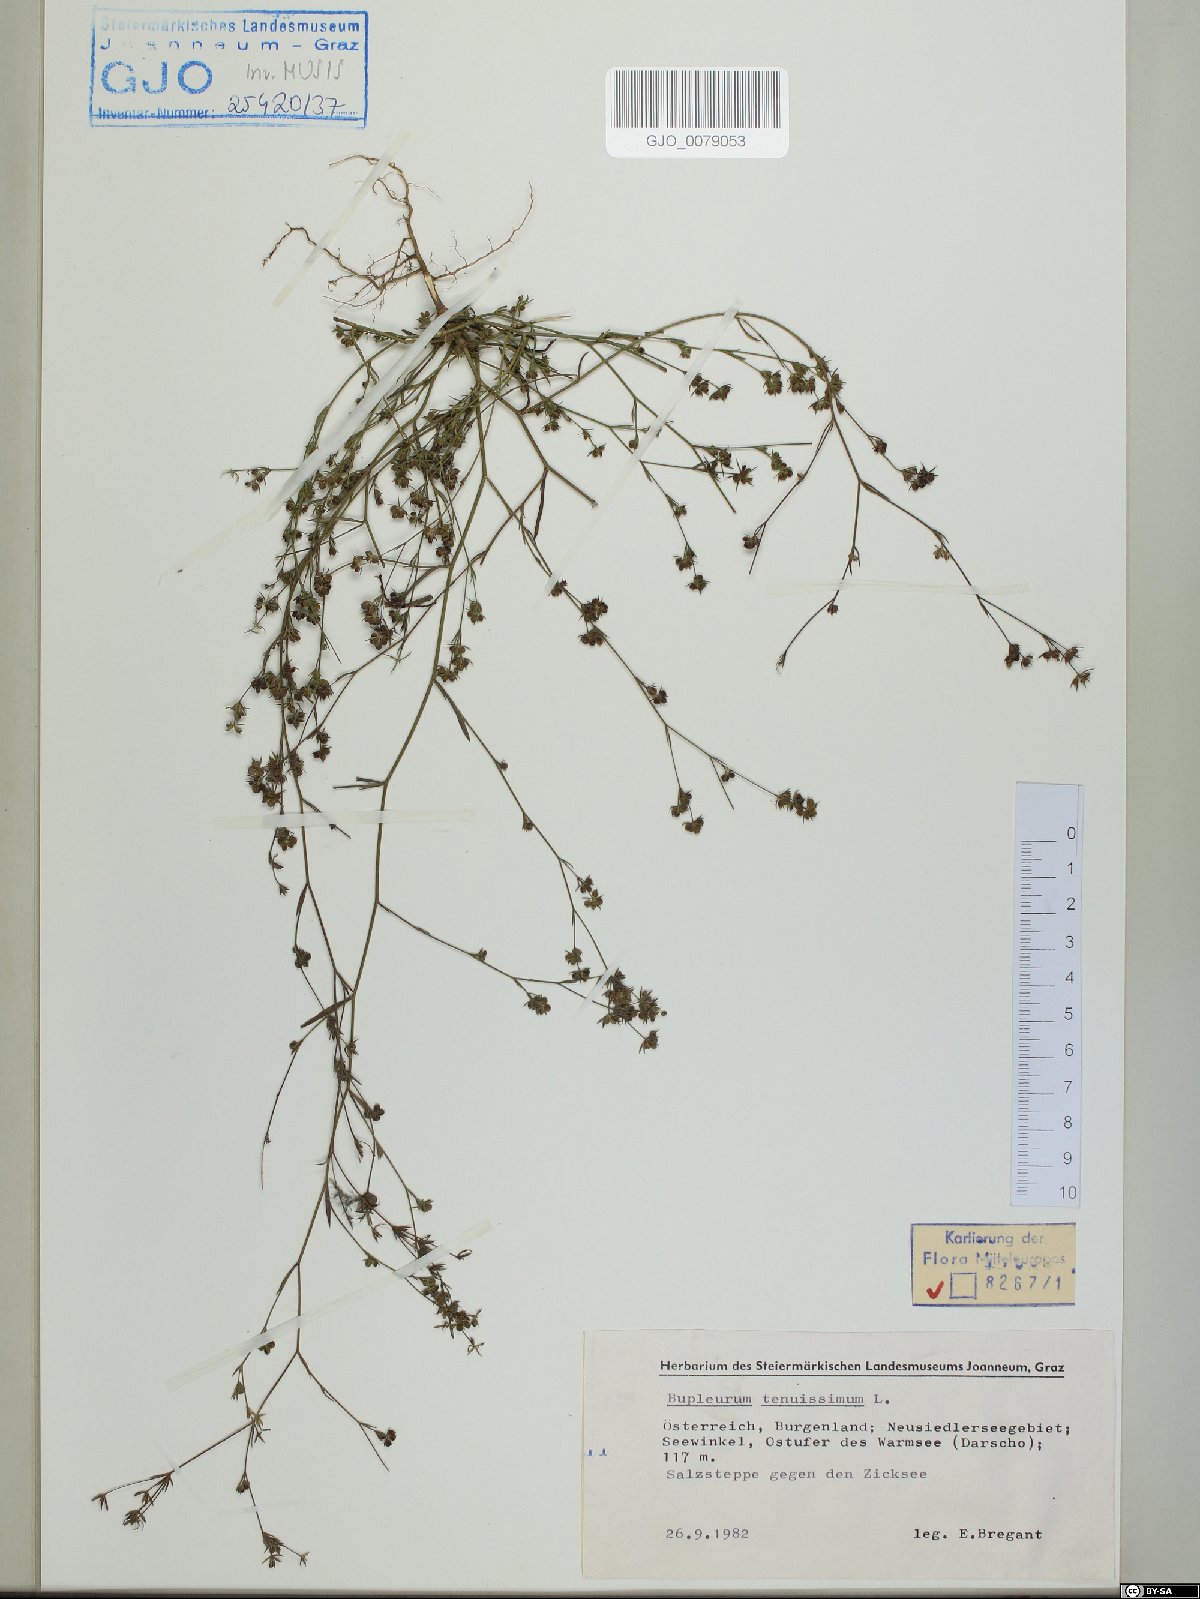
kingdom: Plantae
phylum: Tracheophyta
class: Magnoliopsida
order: Apiales
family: Apiaceae
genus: Bupleurum
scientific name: Bupleurum tenuissimum
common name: Slender hare's-ear
